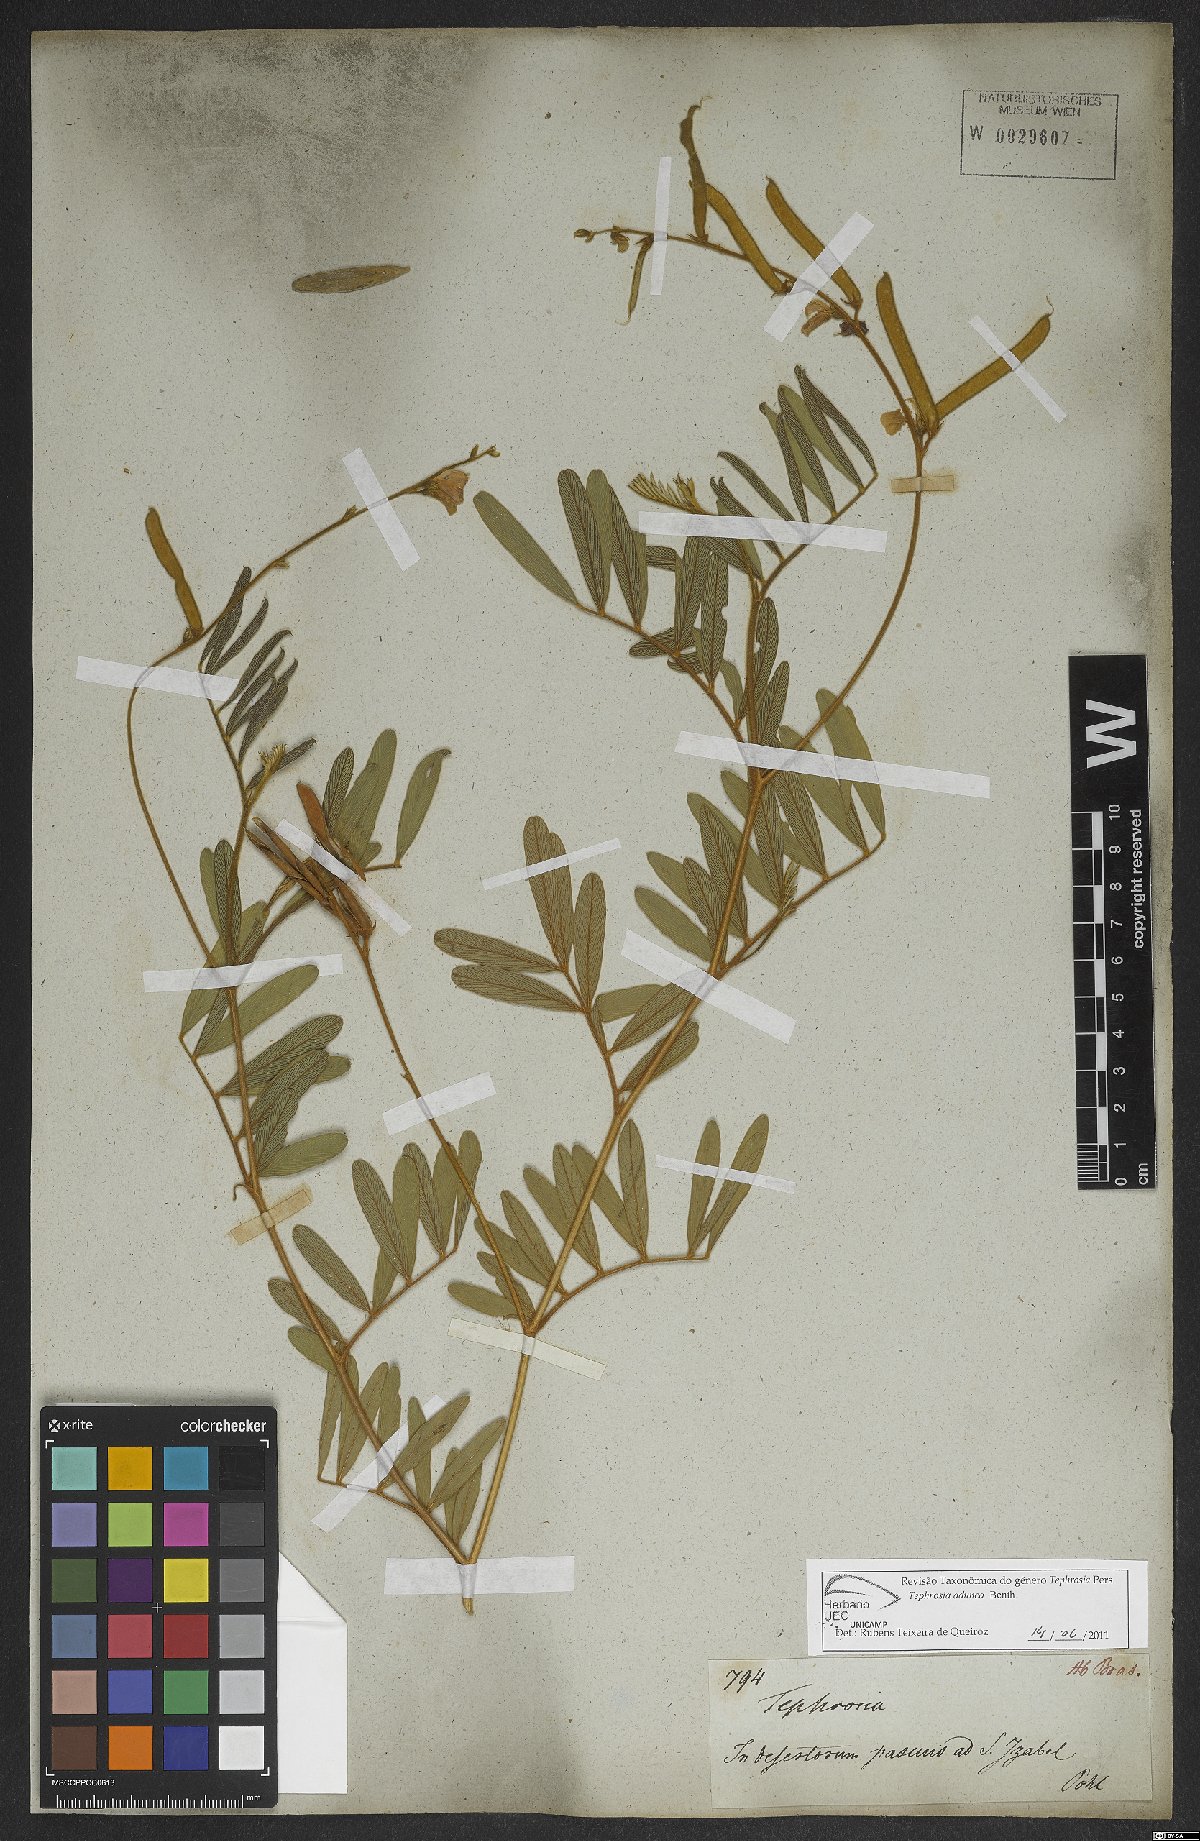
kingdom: Plantae
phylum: Tracheophyta
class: Magnoliopsida
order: Fabales
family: Fabaceae
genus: Tephrosia
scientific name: Tephrosia adunca
